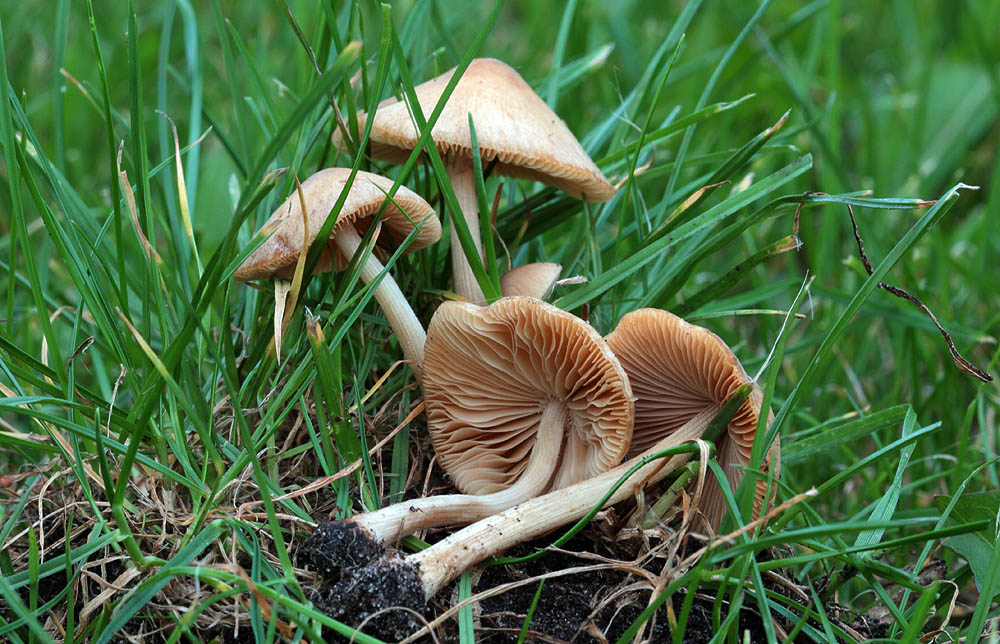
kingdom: Fungi
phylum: Basidiomycota
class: Agaricomycetes
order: Agaricales
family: Bolbitiaceae
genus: Conocybe
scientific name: Conocybe inocybeoides
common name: knold-keglehat
